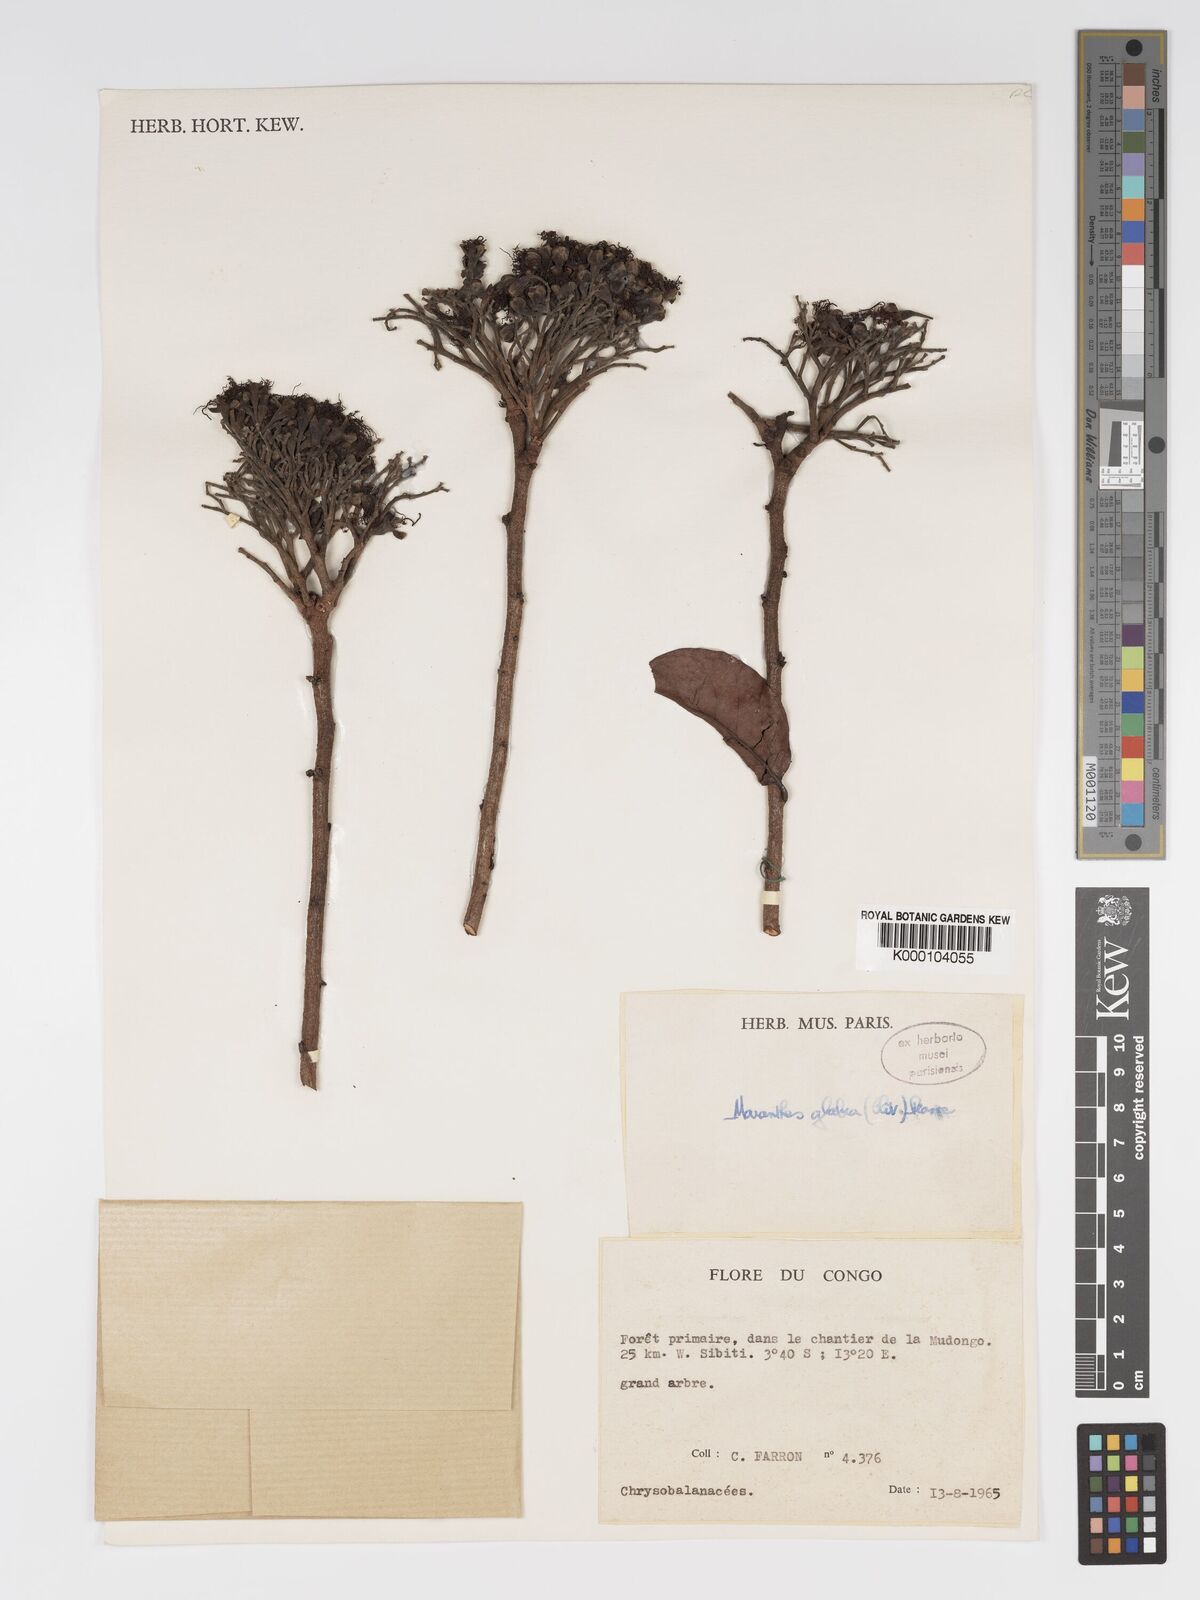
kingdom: Plantae
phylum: Tracheophyta
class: Magnoliopsida
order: Malpighiales
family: Chrysobalanaceae
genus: Maranthes
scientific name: Maranthes glabra
